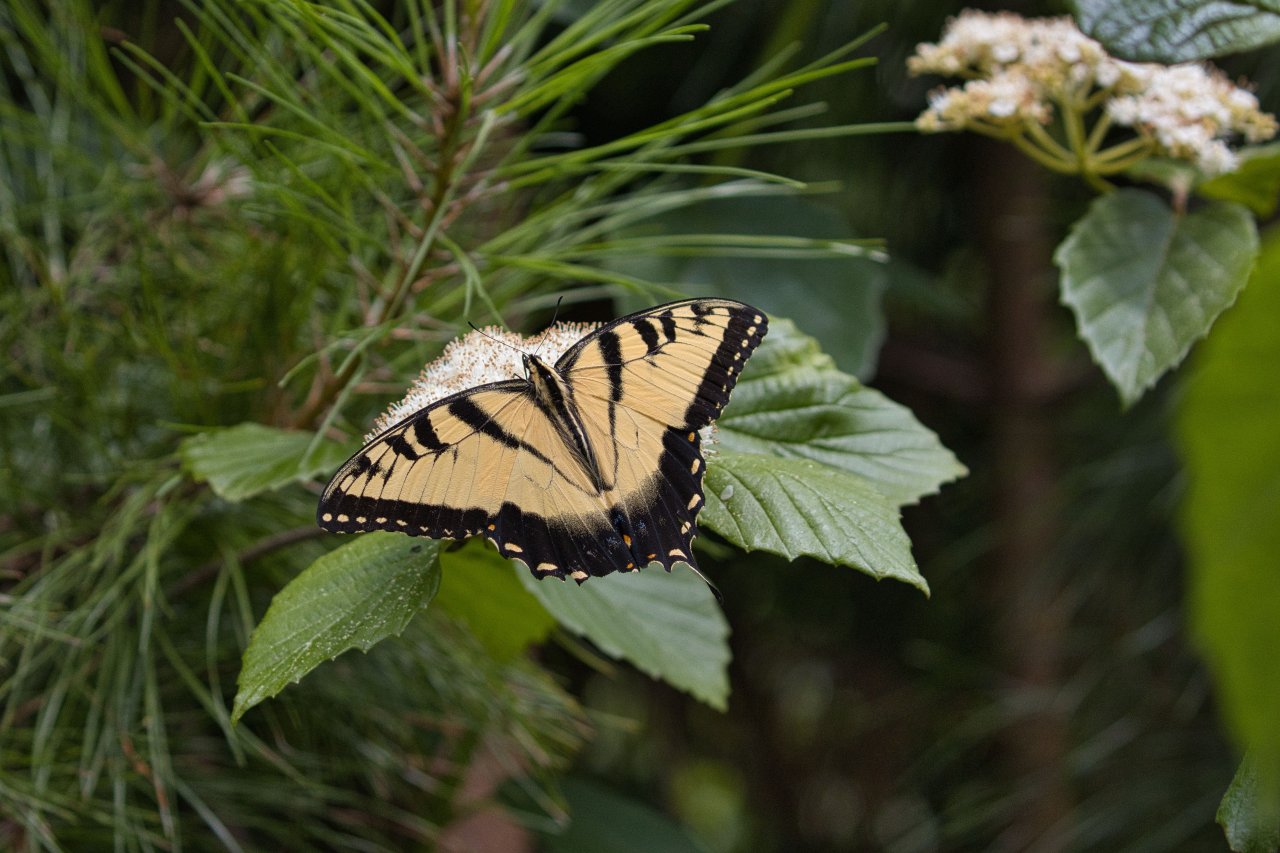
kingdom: Animalia
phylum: Arthropoda
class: Insecta
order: Lepidoptera
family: Papilionidae
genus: Pterourus
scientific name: Pterourus glaucus
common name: Eastern Tiger Swallowtail
